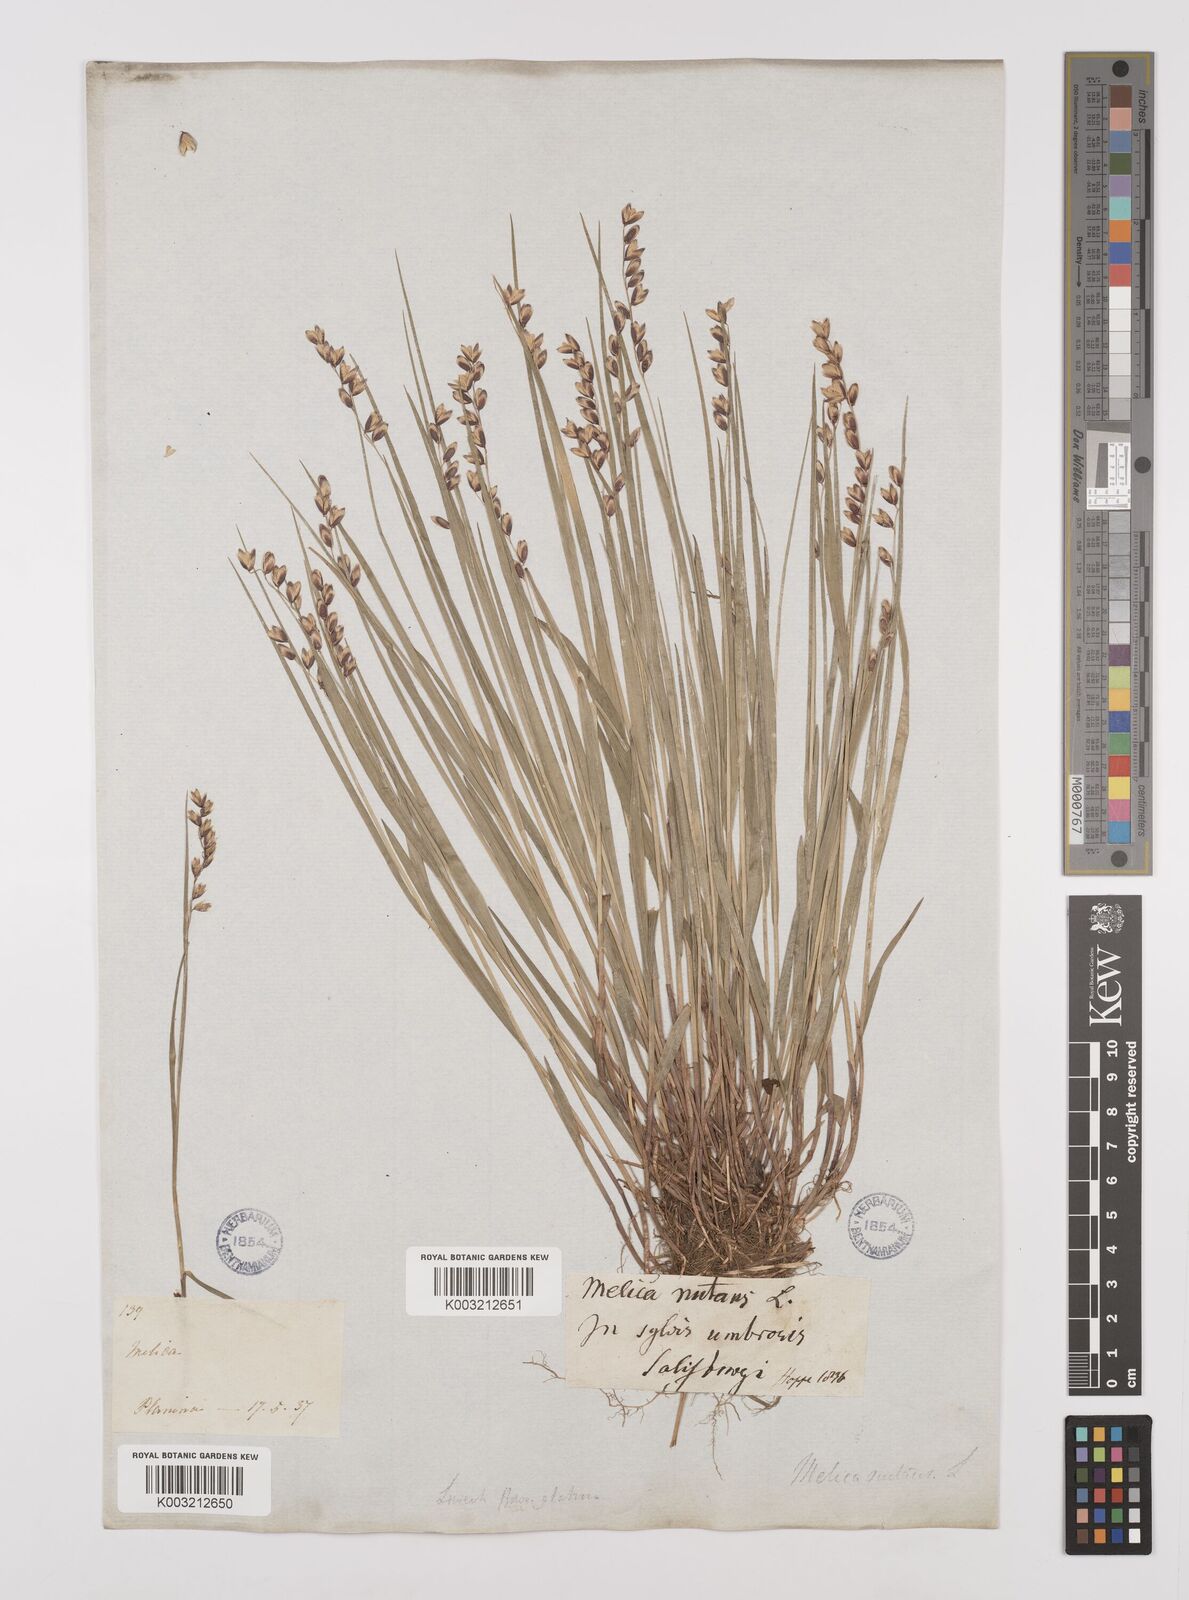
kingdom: Plantae
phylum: Tracheophyta
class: Liliopsida
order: Poales
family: Poaceae
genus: Melica
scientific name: Melica
